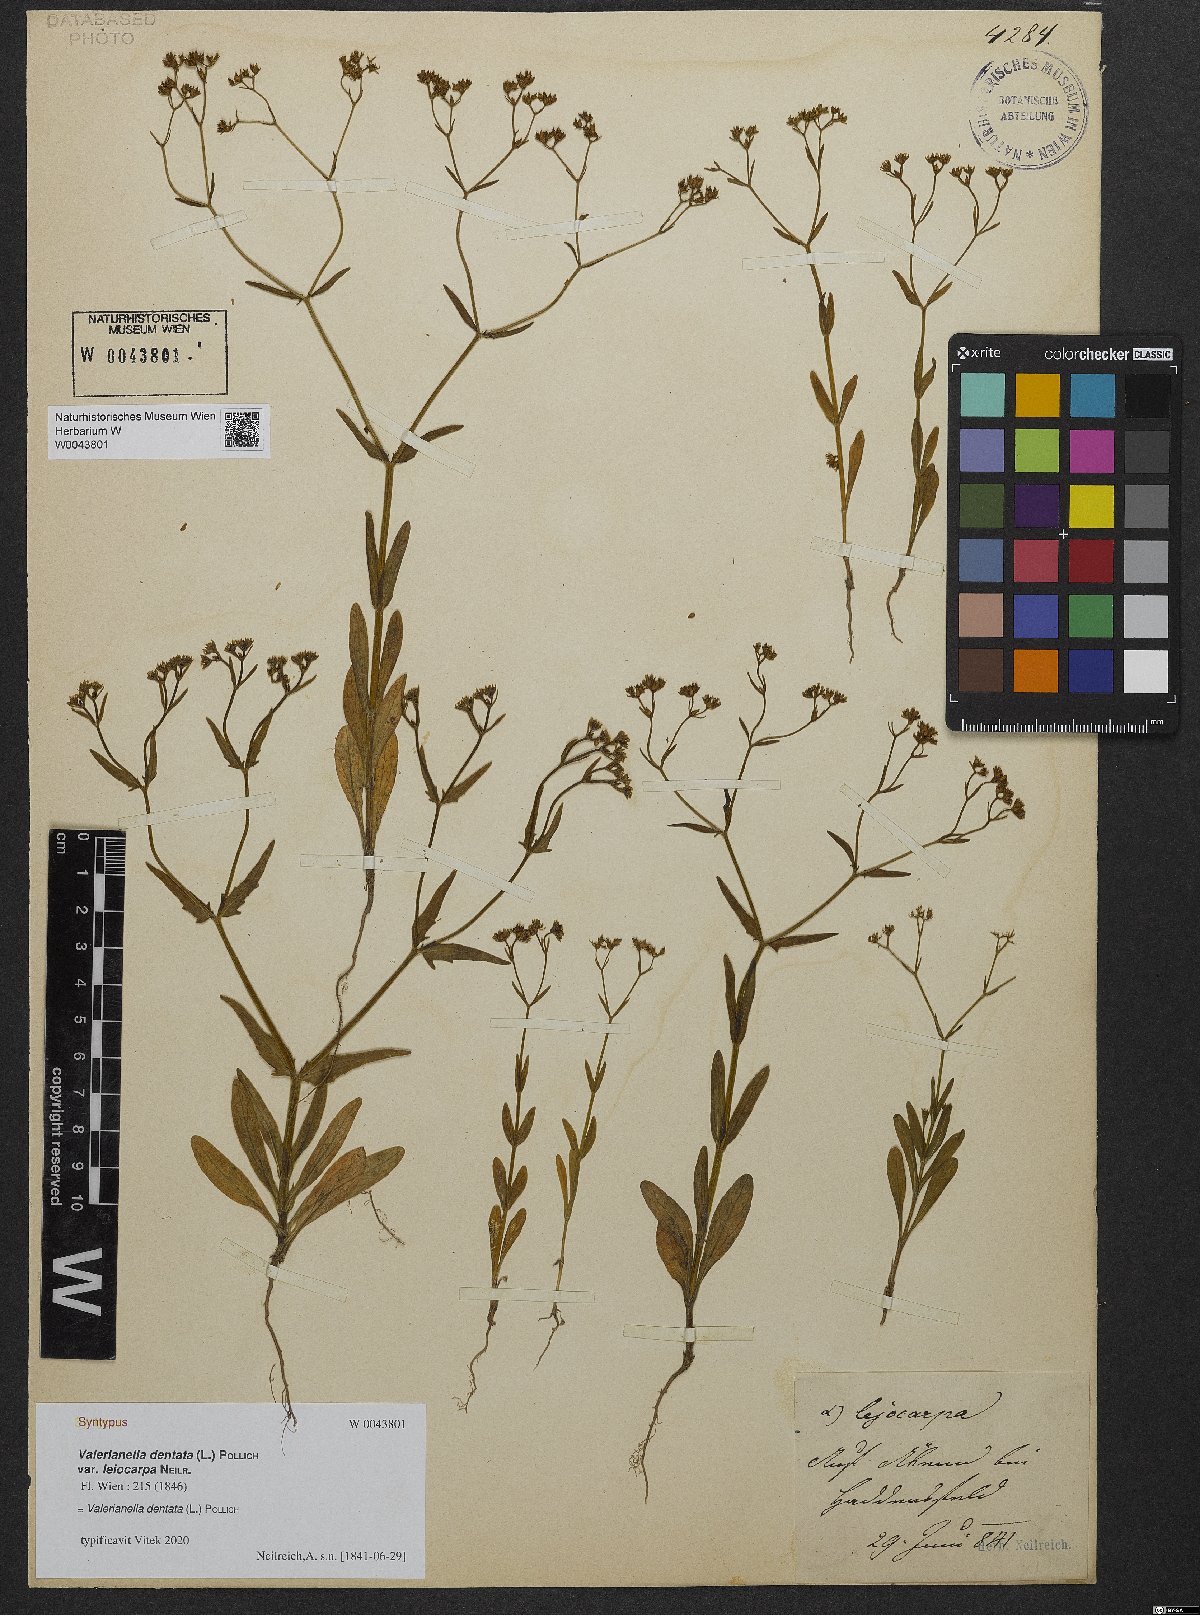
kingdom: Plantae
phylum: Tracheophyta
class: Magnoliopsida
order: Dipsacales
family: Caprifoliaceae
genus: Valerianella
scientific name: Valerianella dentata
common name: Narrow-fruited cornsalad
